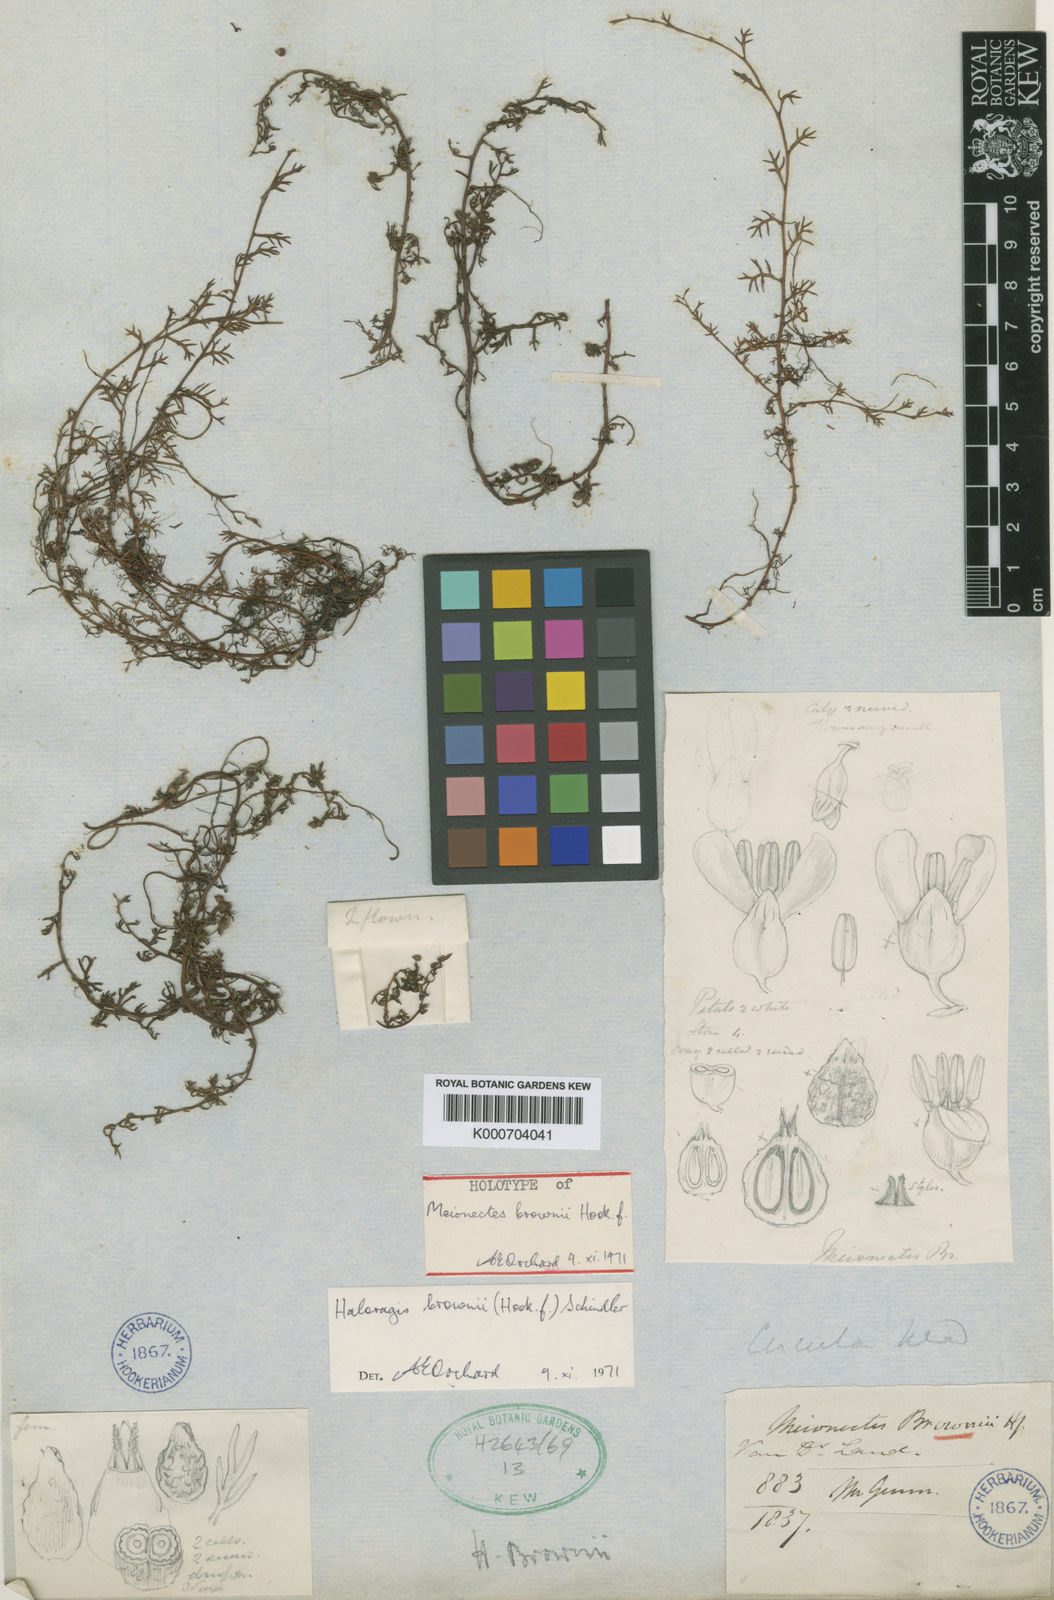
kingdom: Plantae
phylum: Tracheophyta
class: Magnoliopsida
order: Saxifragales
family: Haloragaceae
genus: Haloragis
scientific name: Haloragis brownii
